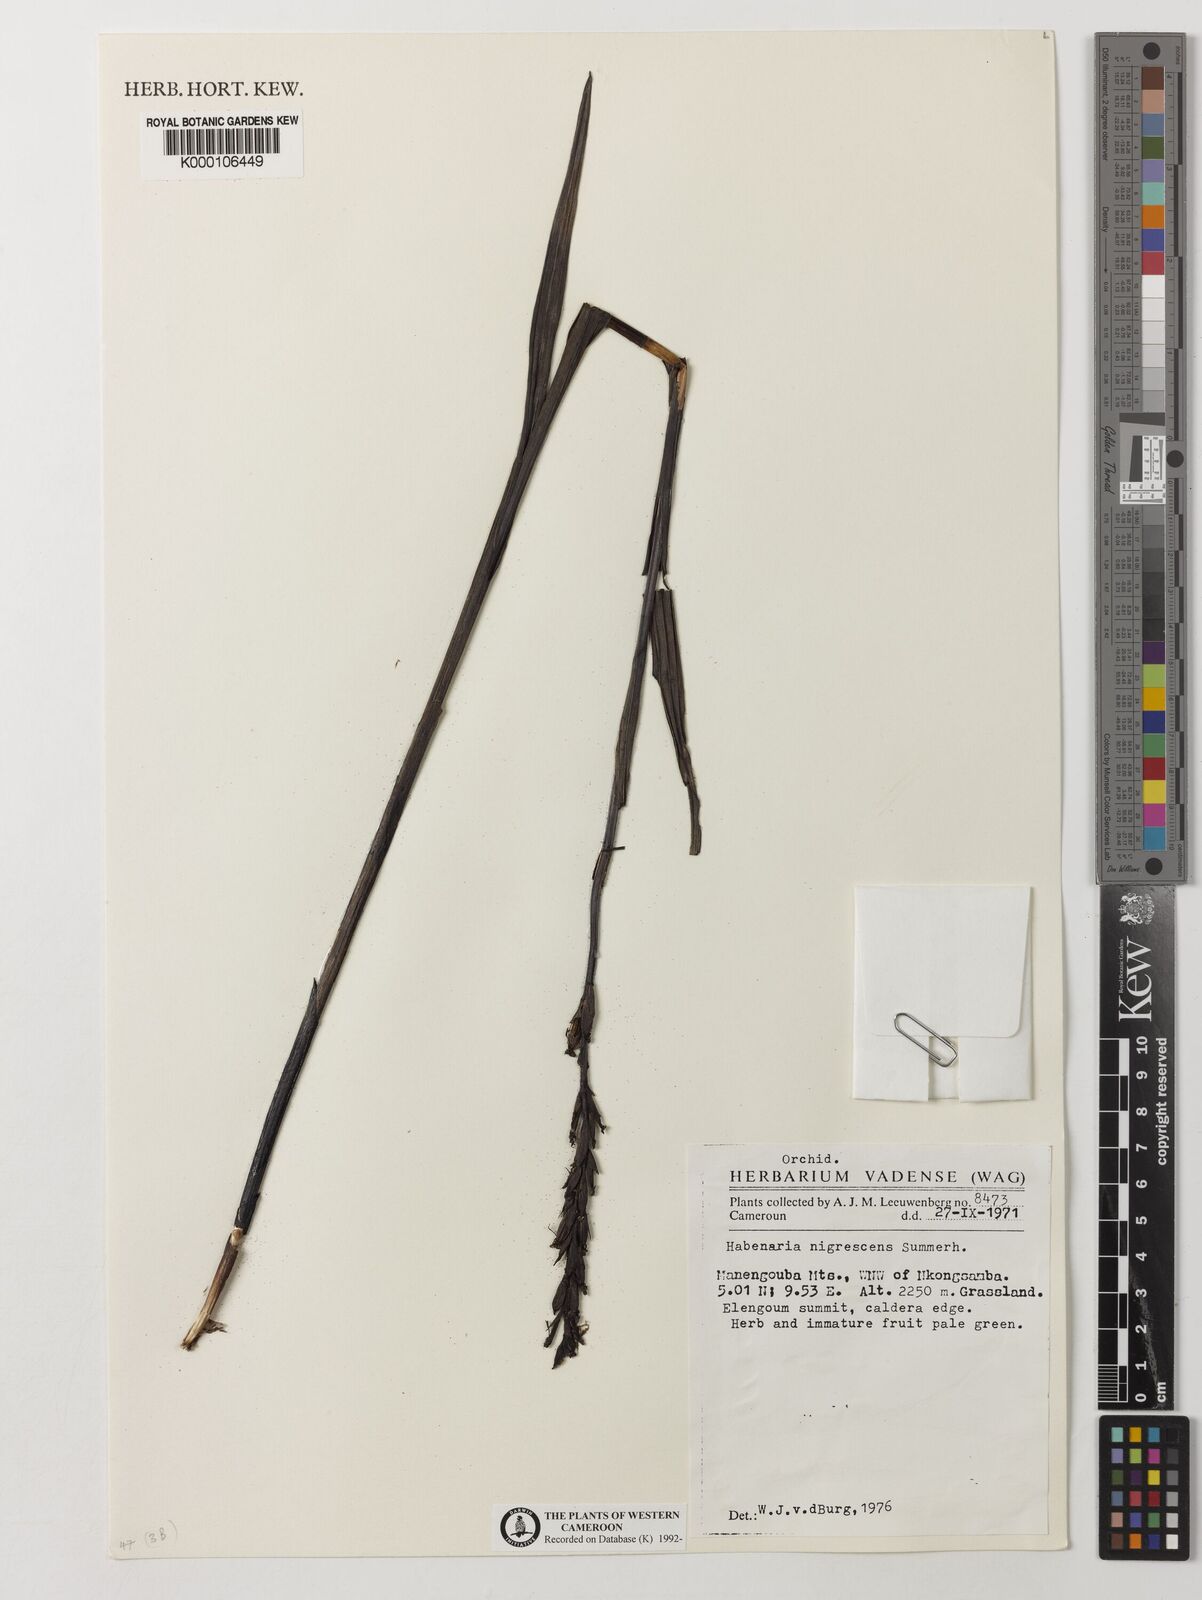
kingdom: Plantae
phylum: Tracheophyta
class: Liliopsida
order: Asparagales
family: Orchidaceae
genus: Habenaria
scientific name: Habenaria nigrescens
